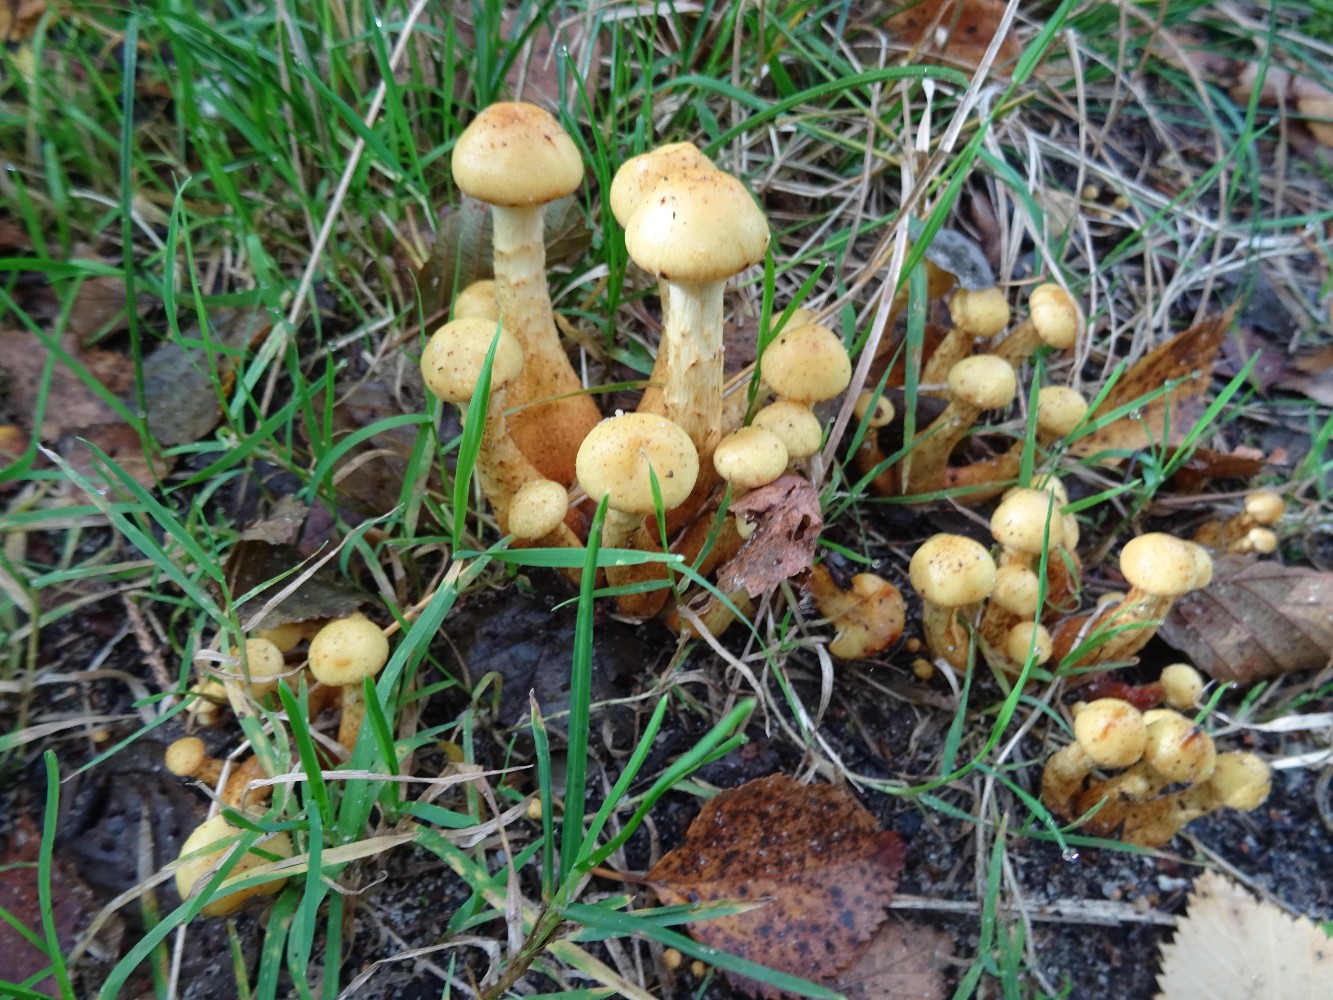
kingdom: Fungi
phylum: Basidiomycota
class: Agaricomycetes
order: Agaricales
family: Physalacriaceae
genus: Armillaria
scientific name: Armillaria lutea
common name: køllestokket honningsvamp
